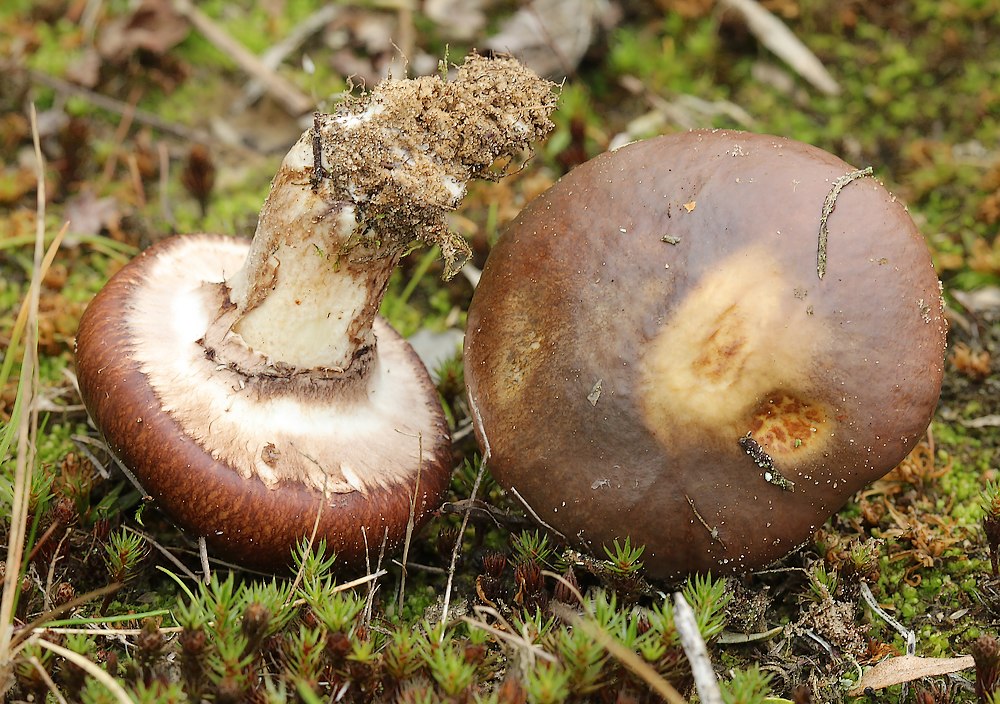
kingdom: Fungi
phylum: Basidiomycota
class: Agaricomycetes
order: Boletales
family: Suillaceae
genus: Suillus
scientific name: Suillus luteus
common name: brungul slimrørhat
